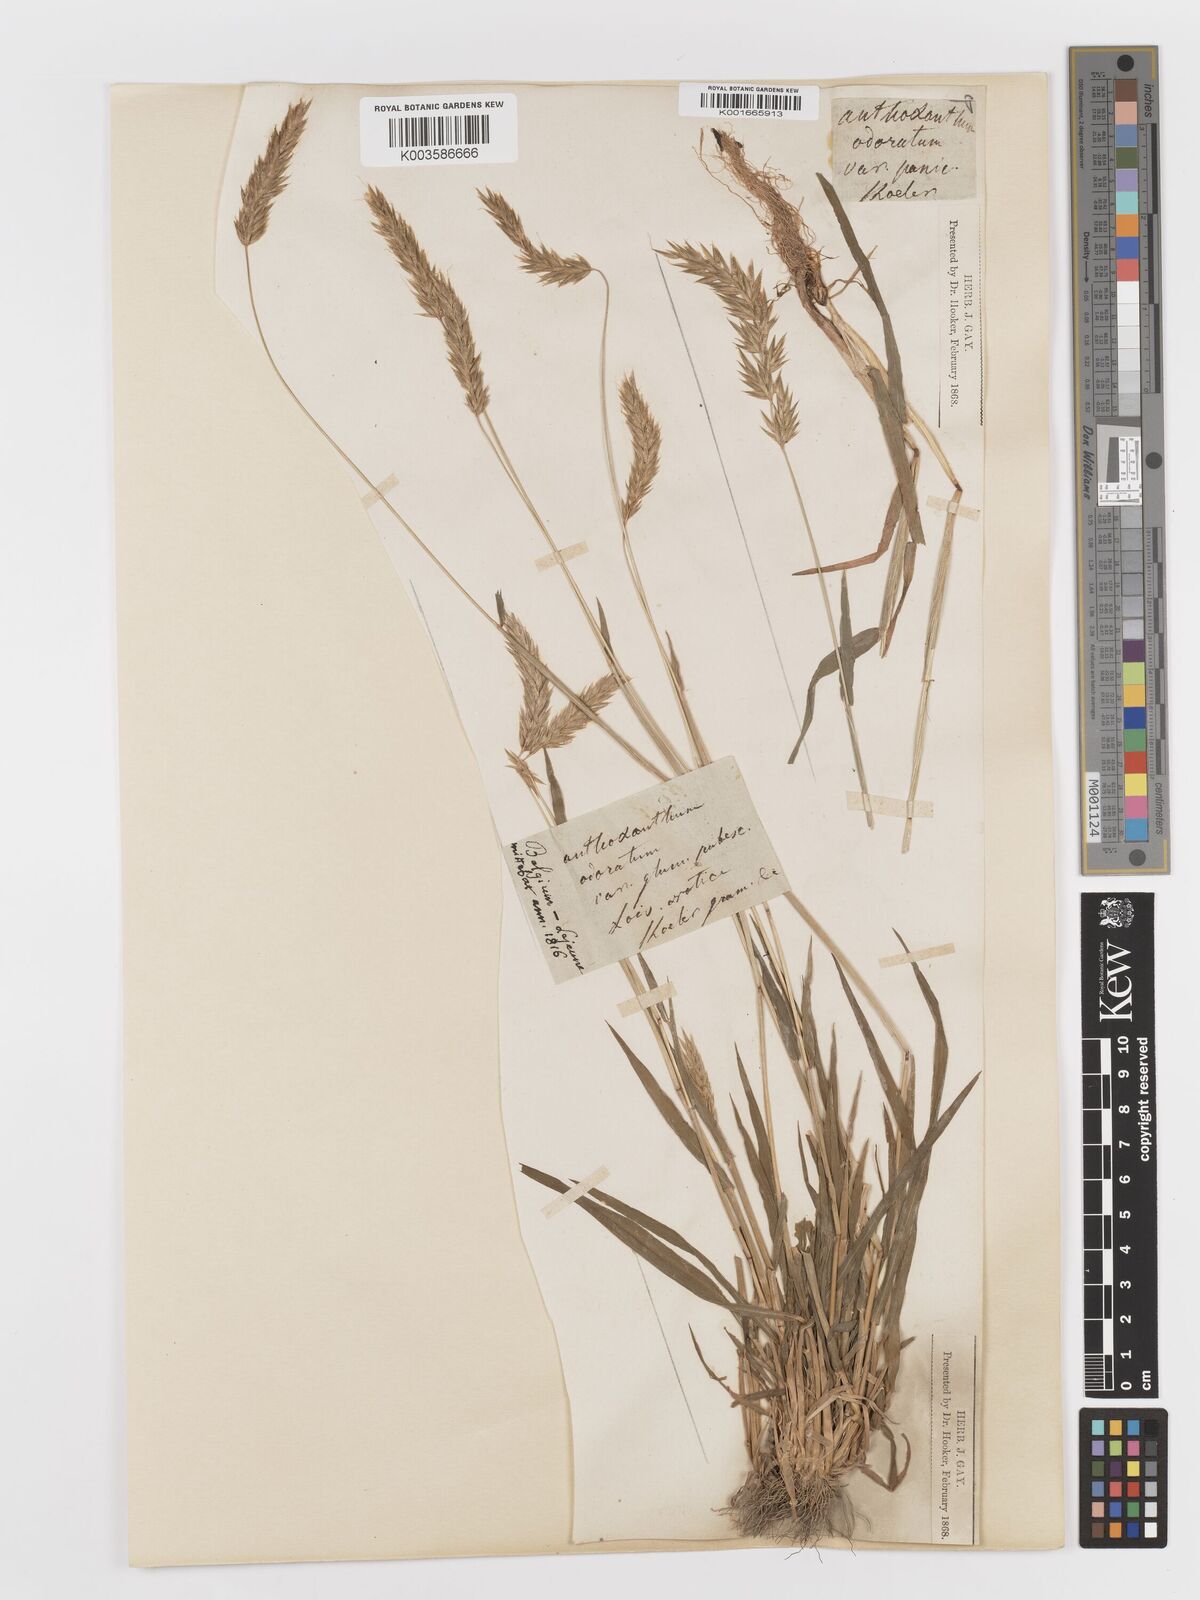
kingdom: Plantae
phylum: Tracheophyta
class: Liliopsida
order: Poales
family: Poaceae
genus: Anthoxanthum
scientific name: Anthoxanthum odoratum
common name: Sweet vernalgrass
